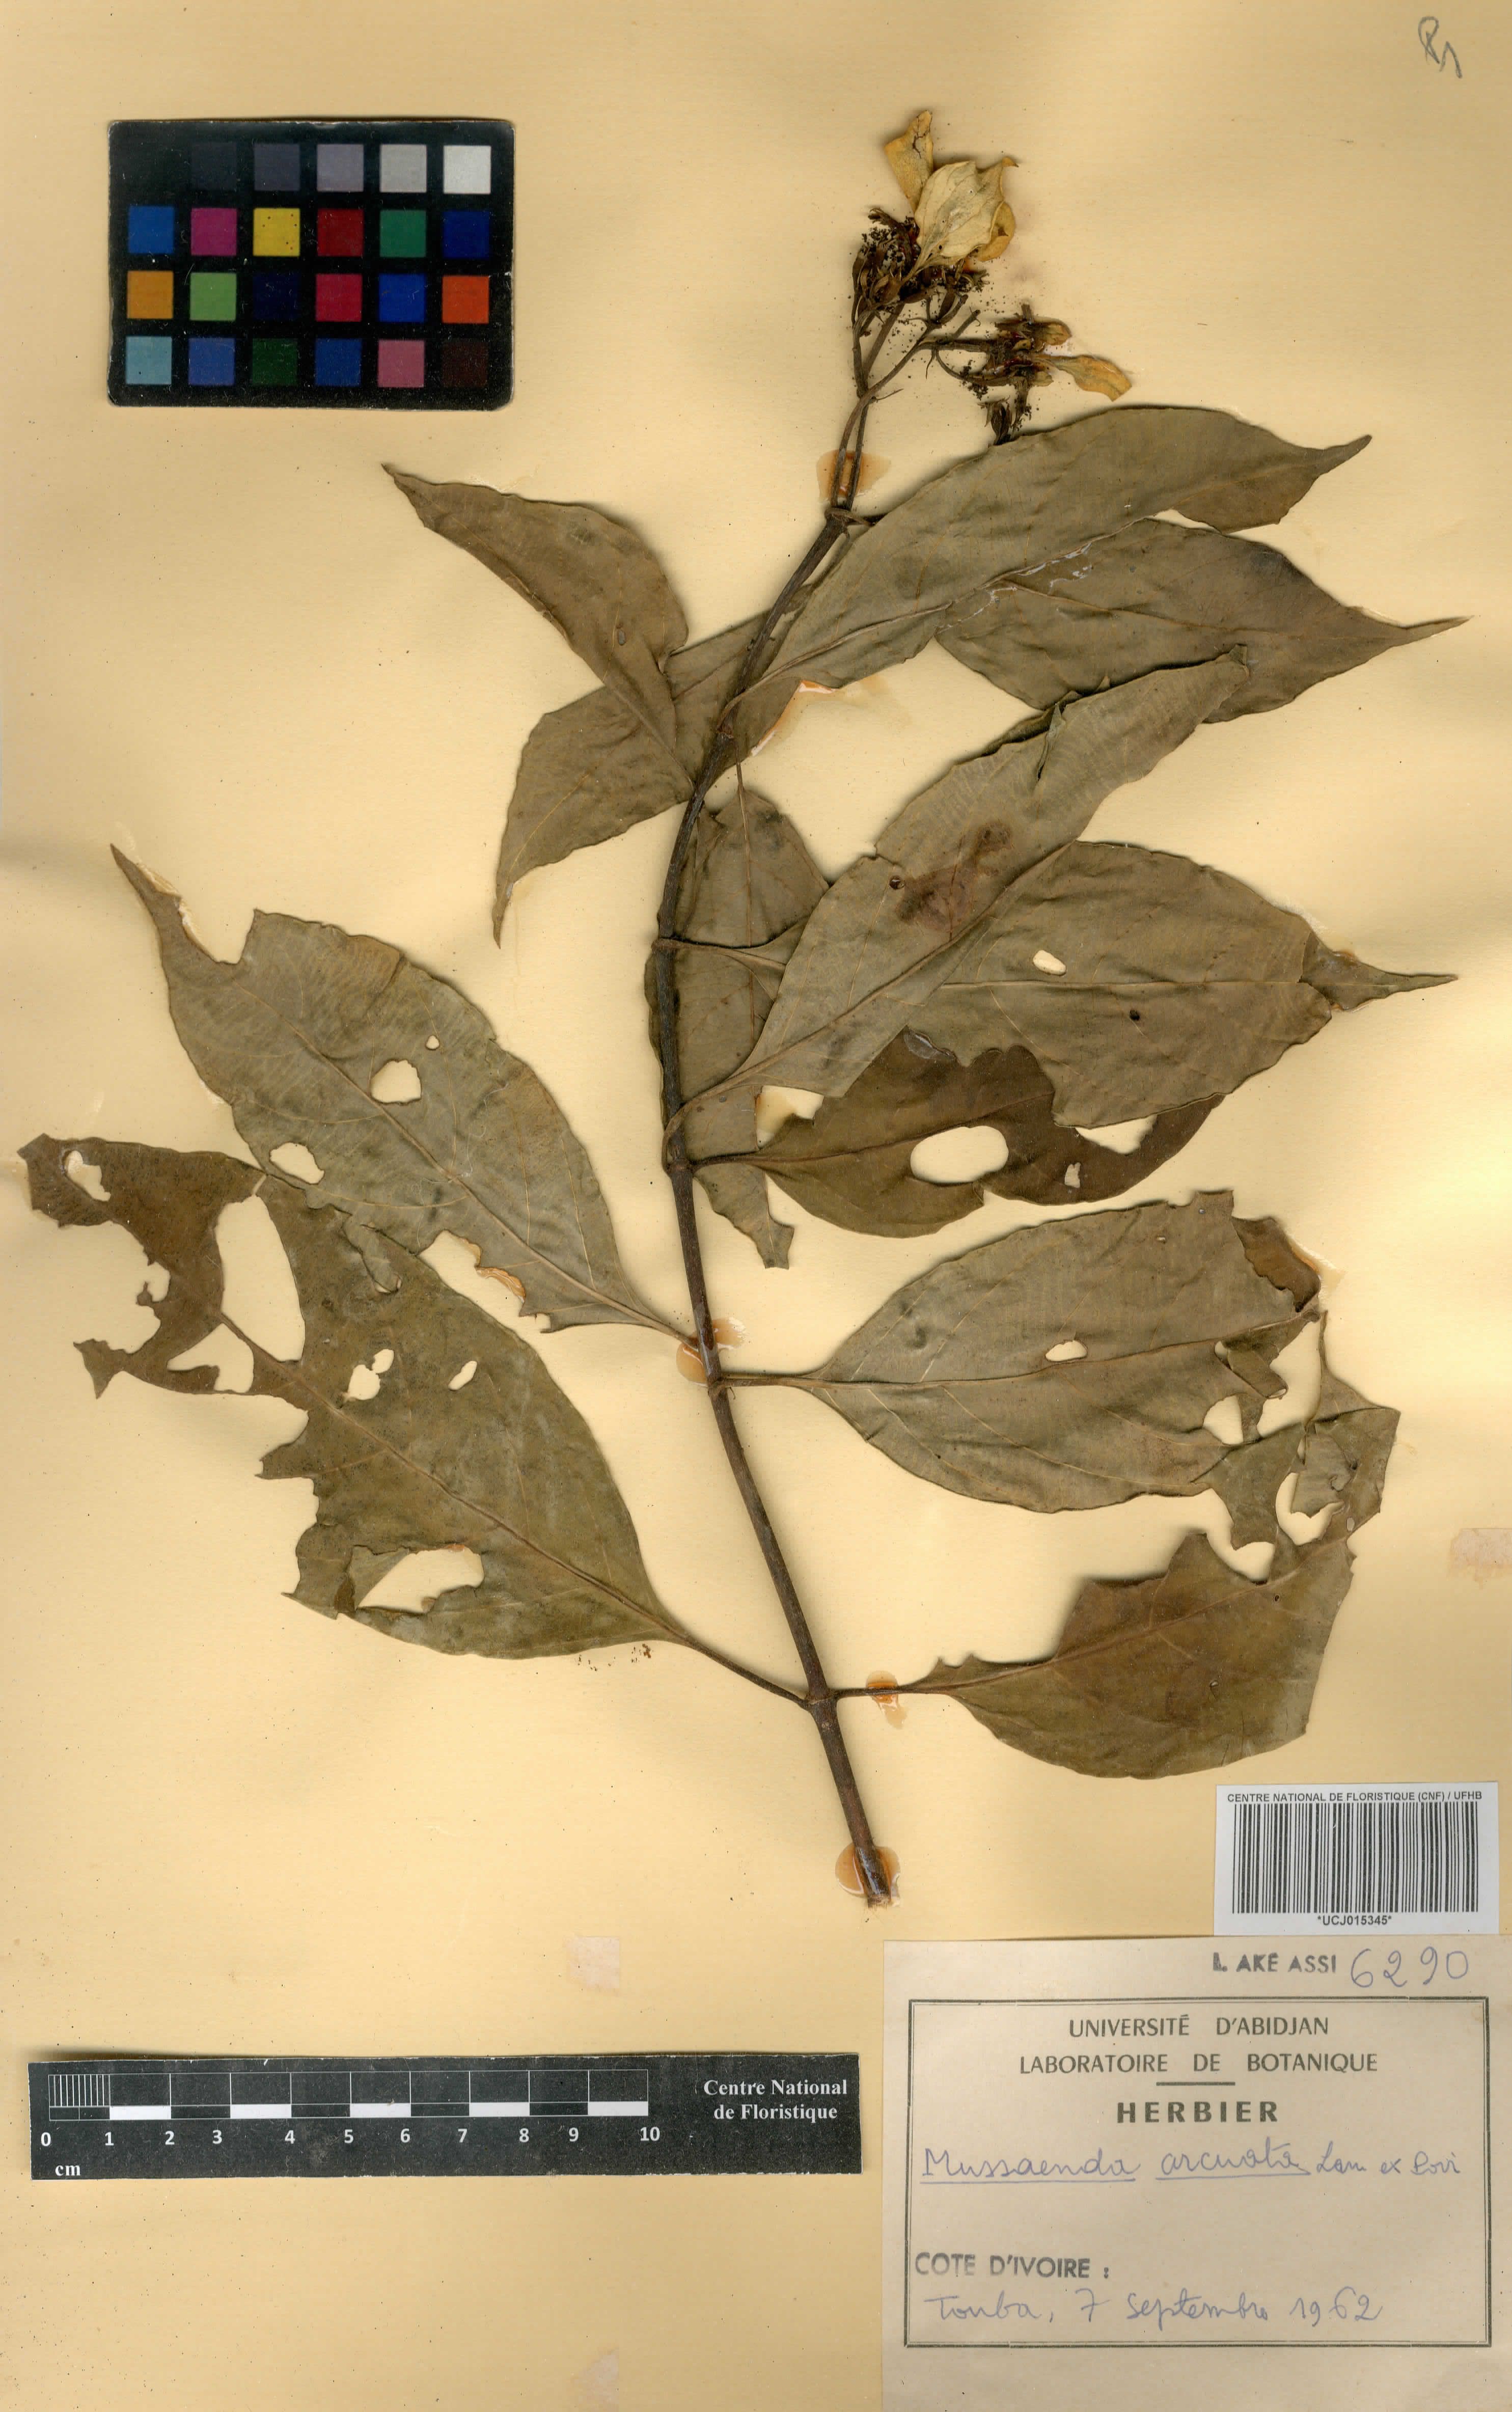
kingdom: Plantae
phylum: Tracheophyta
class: Magnoliopsida
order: Gentianales
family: Rubiaceae
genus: Mussaenda
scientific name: Mussaenda arcuata
